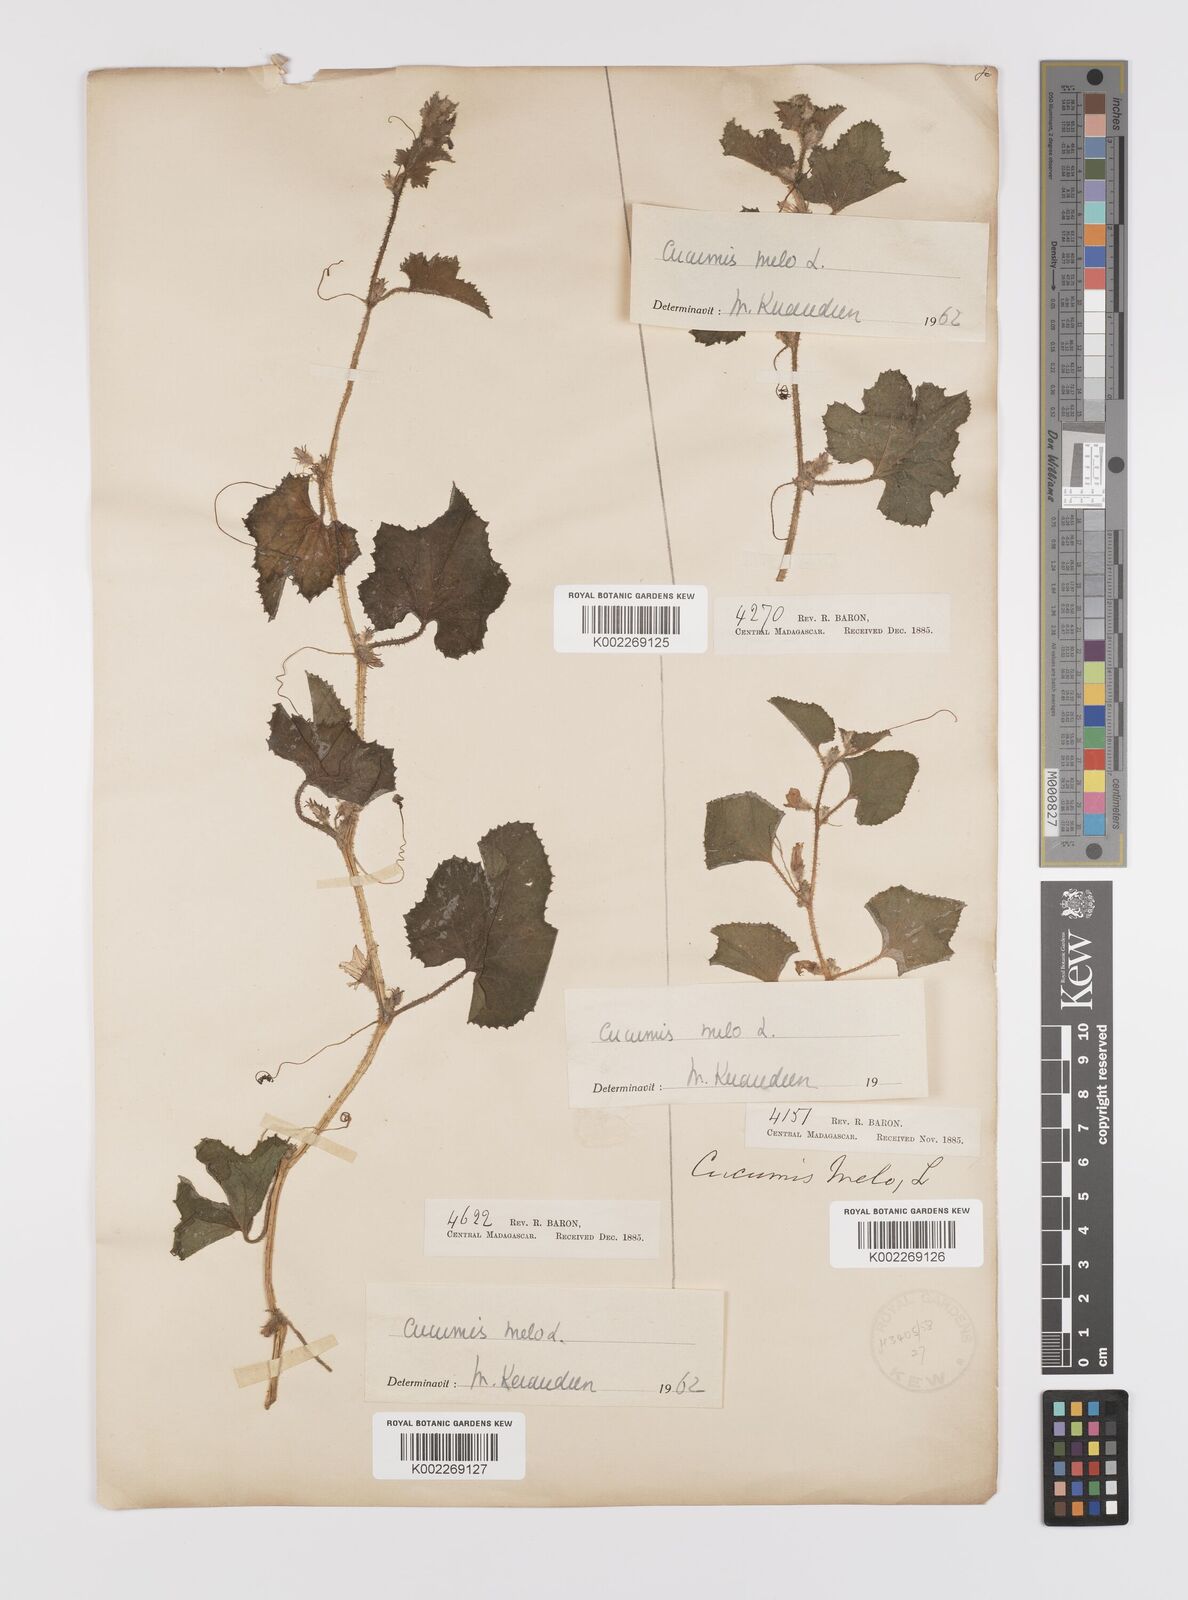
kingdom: Plantae
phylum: Tracheophyta
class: Magnoliopsida
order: Cucurbitales
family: Cucurbitaceae
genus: Cucumis
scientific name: Cucumis melo
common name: Melon
